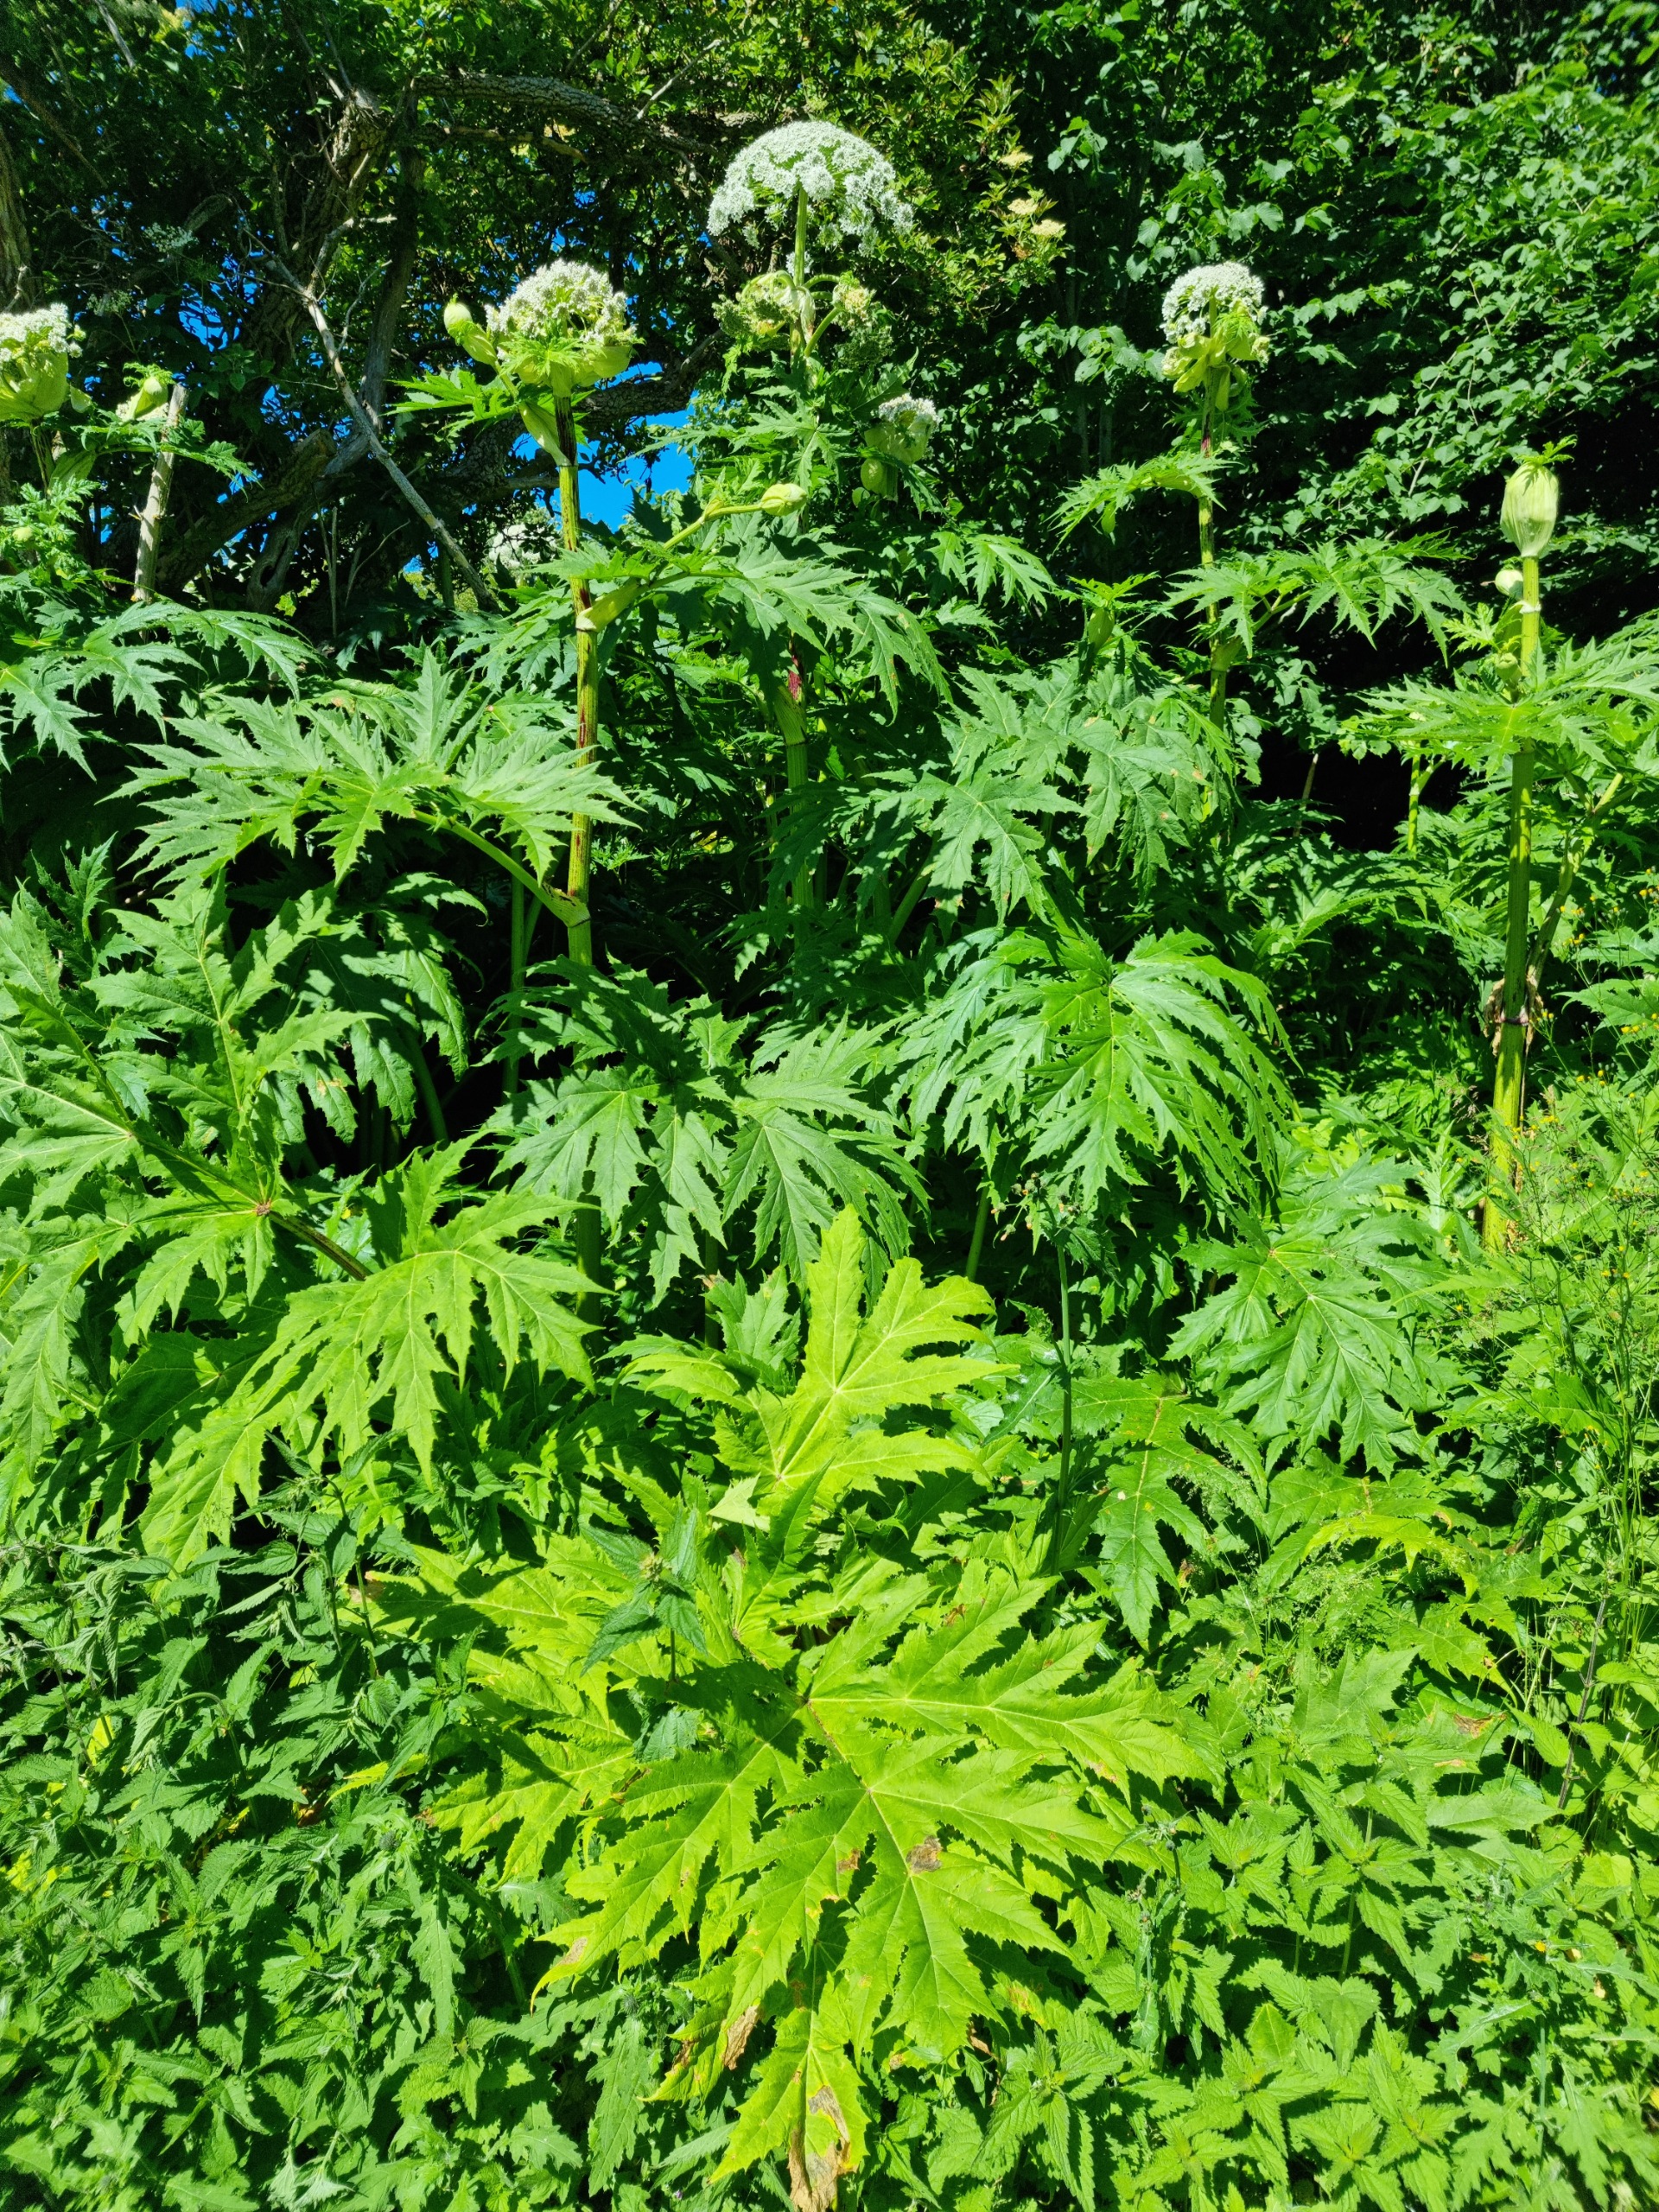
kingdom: Plantae
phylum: Tracheophyta
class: Magnoliopsida
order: Apiales
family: Apiaceae
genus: Heracleum
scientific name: Heracleum mantegazzianum
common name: Kæmpe-bjørneklo
